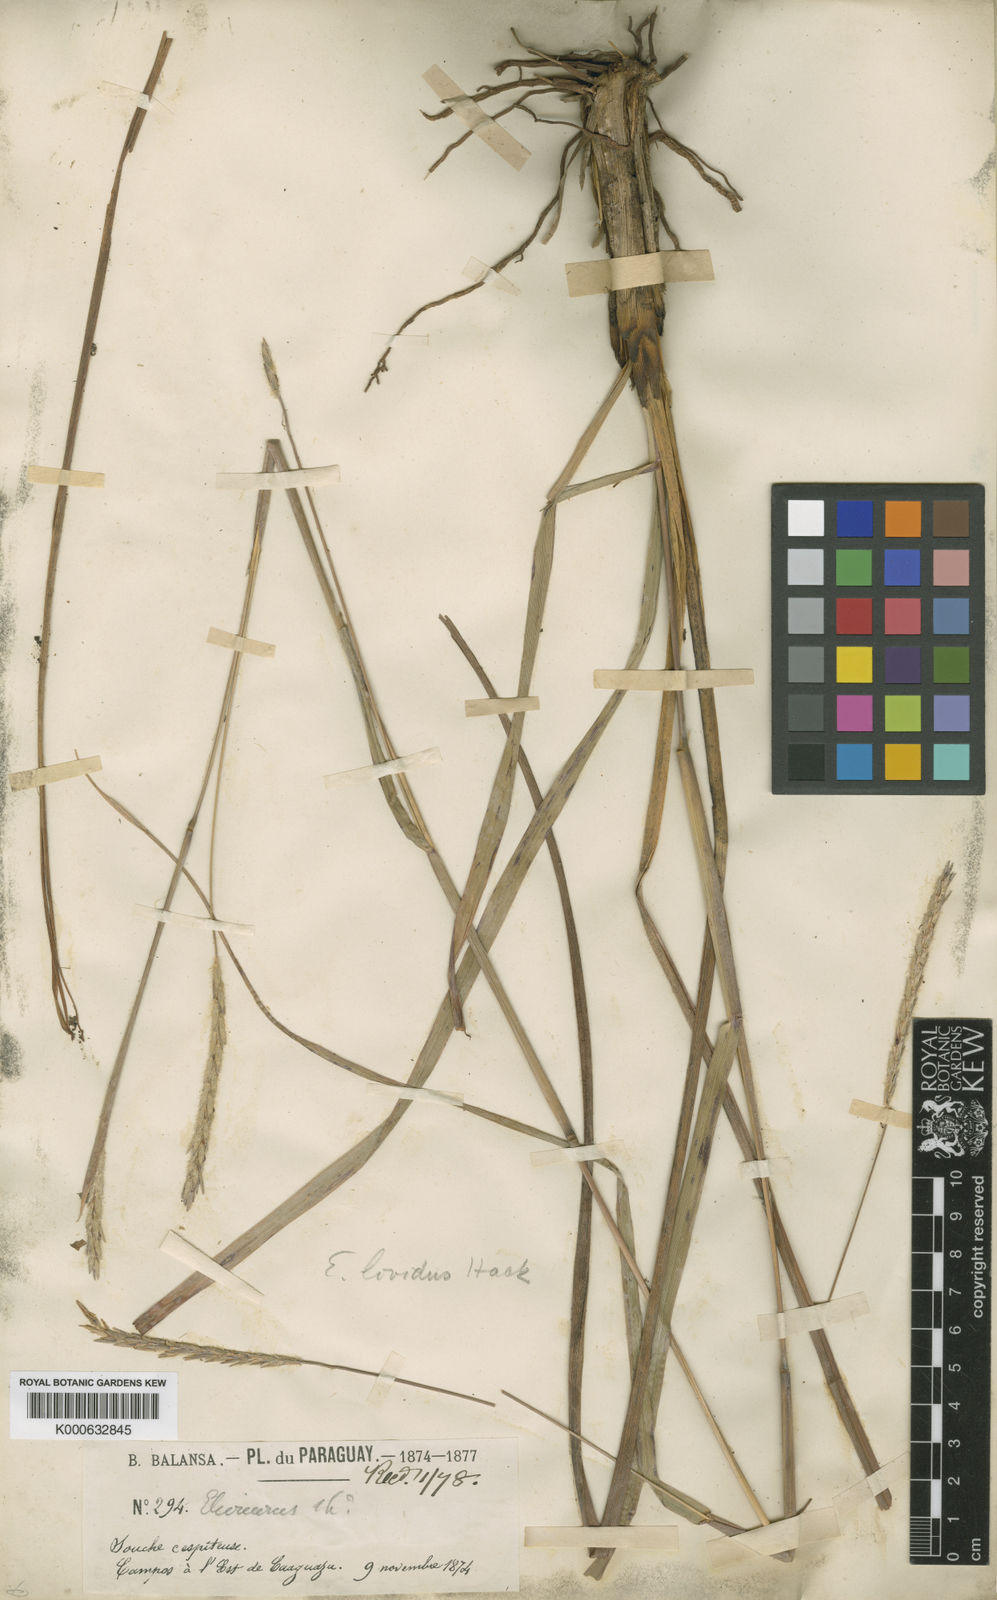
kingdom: Plantae
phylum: Tracheophyta
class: Liliopsida
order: Poales
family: Poaceae
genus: Elionurus
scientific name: Elionurus lividus
